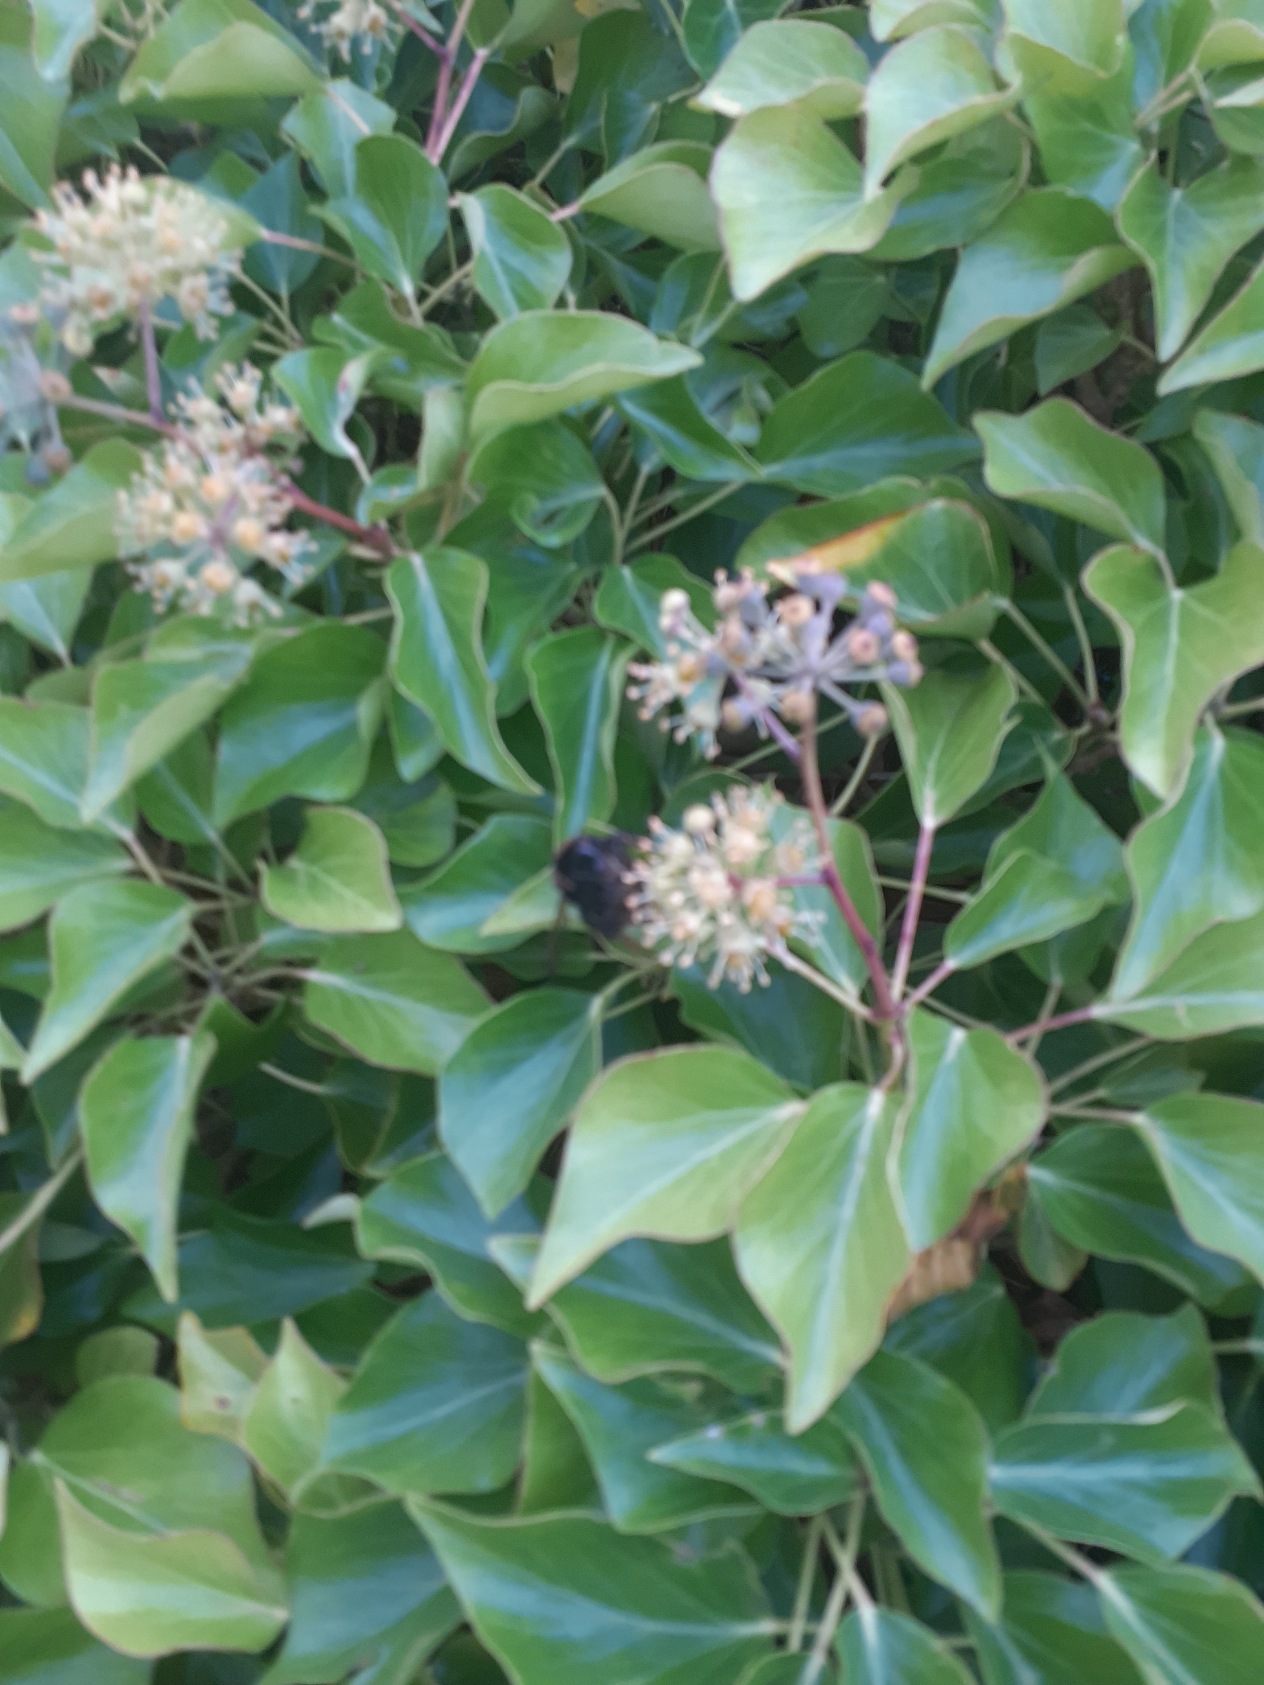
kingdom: Plantae
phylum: Tracheophyta
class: Magnoliopsida
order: Apiales
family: Araliaceae
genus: Hedera
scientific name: Hedera helix
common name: Vedbend
